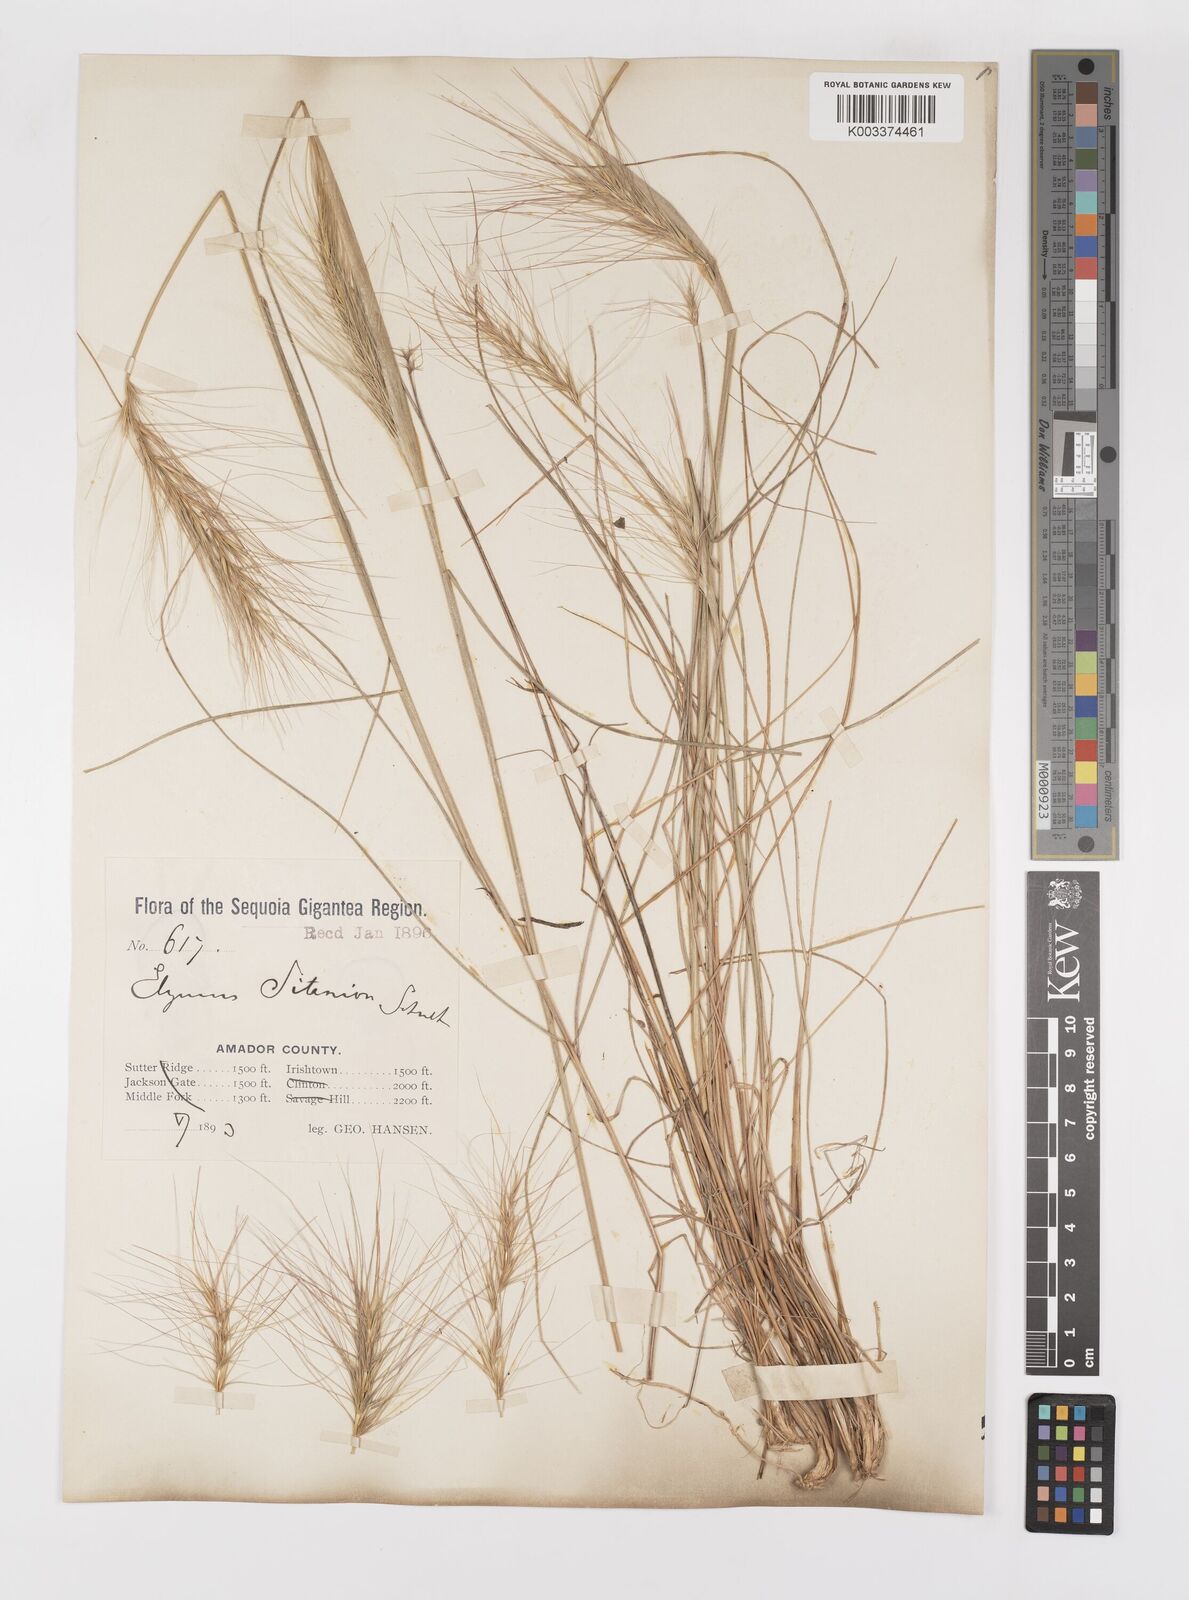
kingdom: Plantae
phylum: Tracheophyta
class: Liliopsida
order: Poales
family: Poaceae
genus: Elymus
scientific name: Elymus multisetus
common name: Big squirreltail
